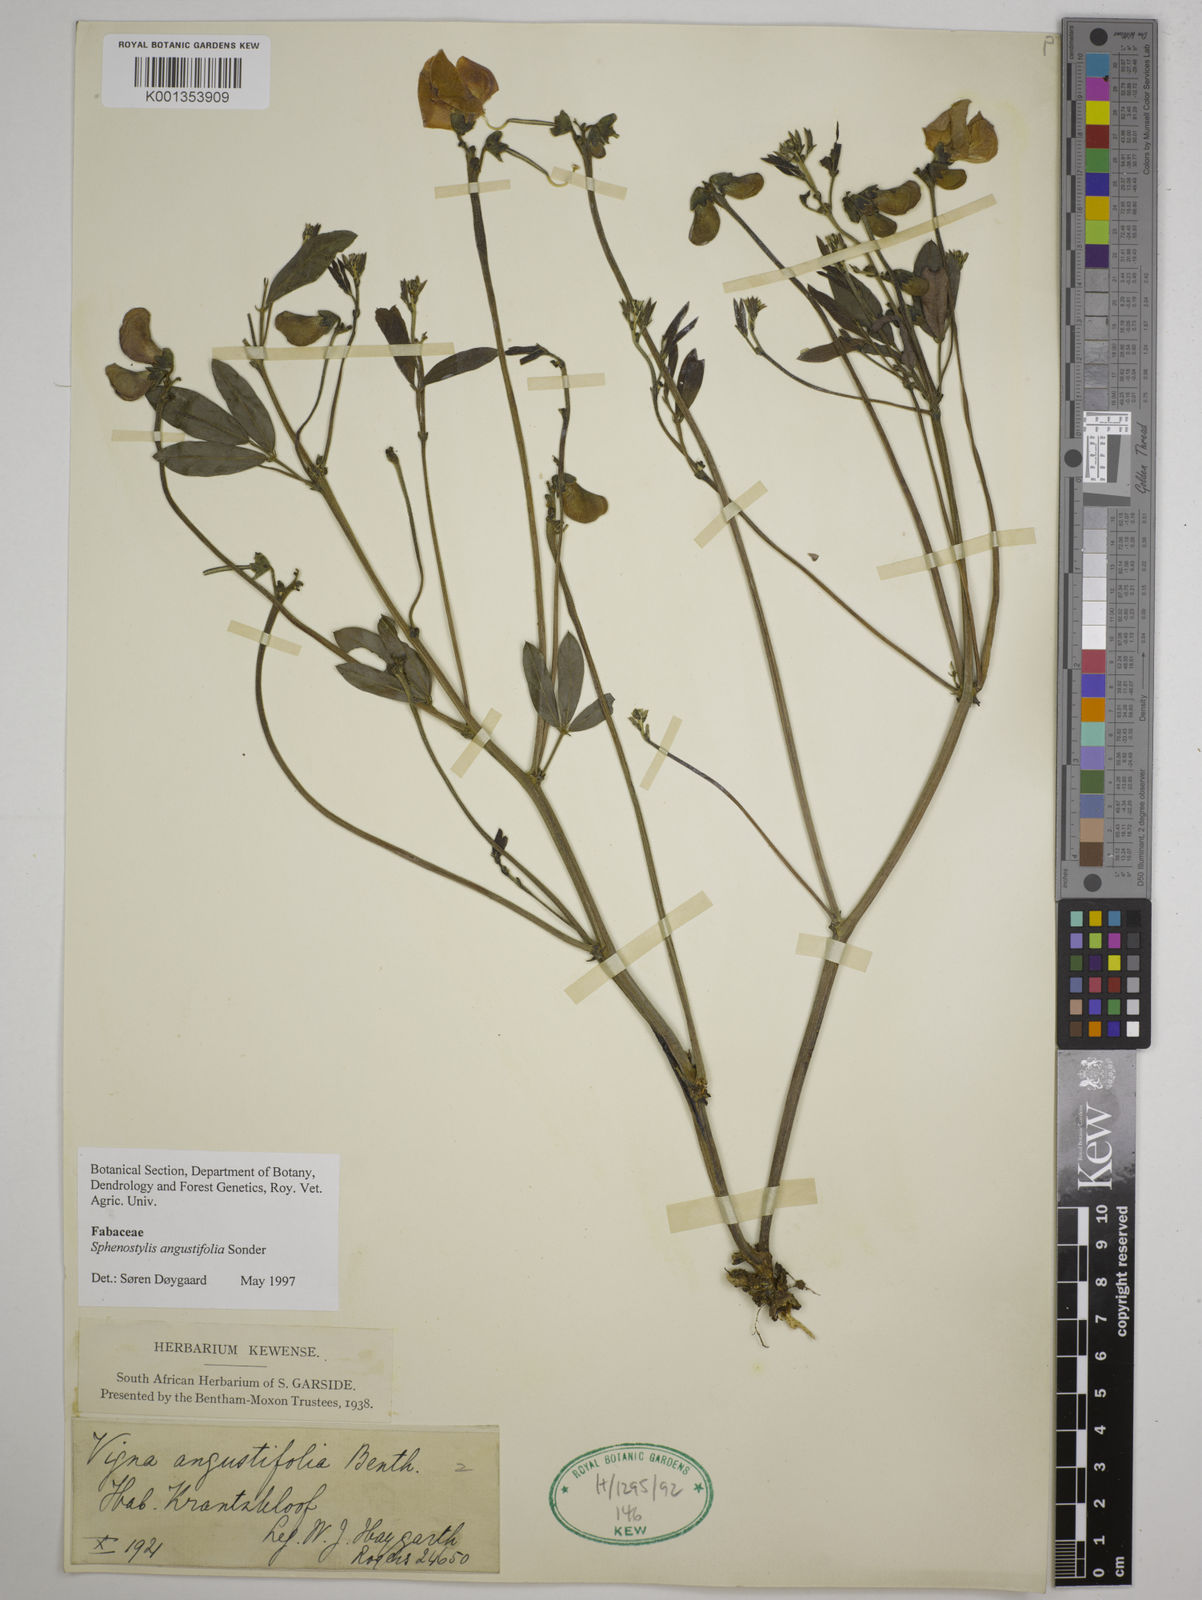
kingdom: Plantae
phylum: Tracheophyta
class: Magnoliopsida
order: Fabales
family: Fabaceae
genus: Sphenostylis
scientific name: Sphenostylis angustifolia
